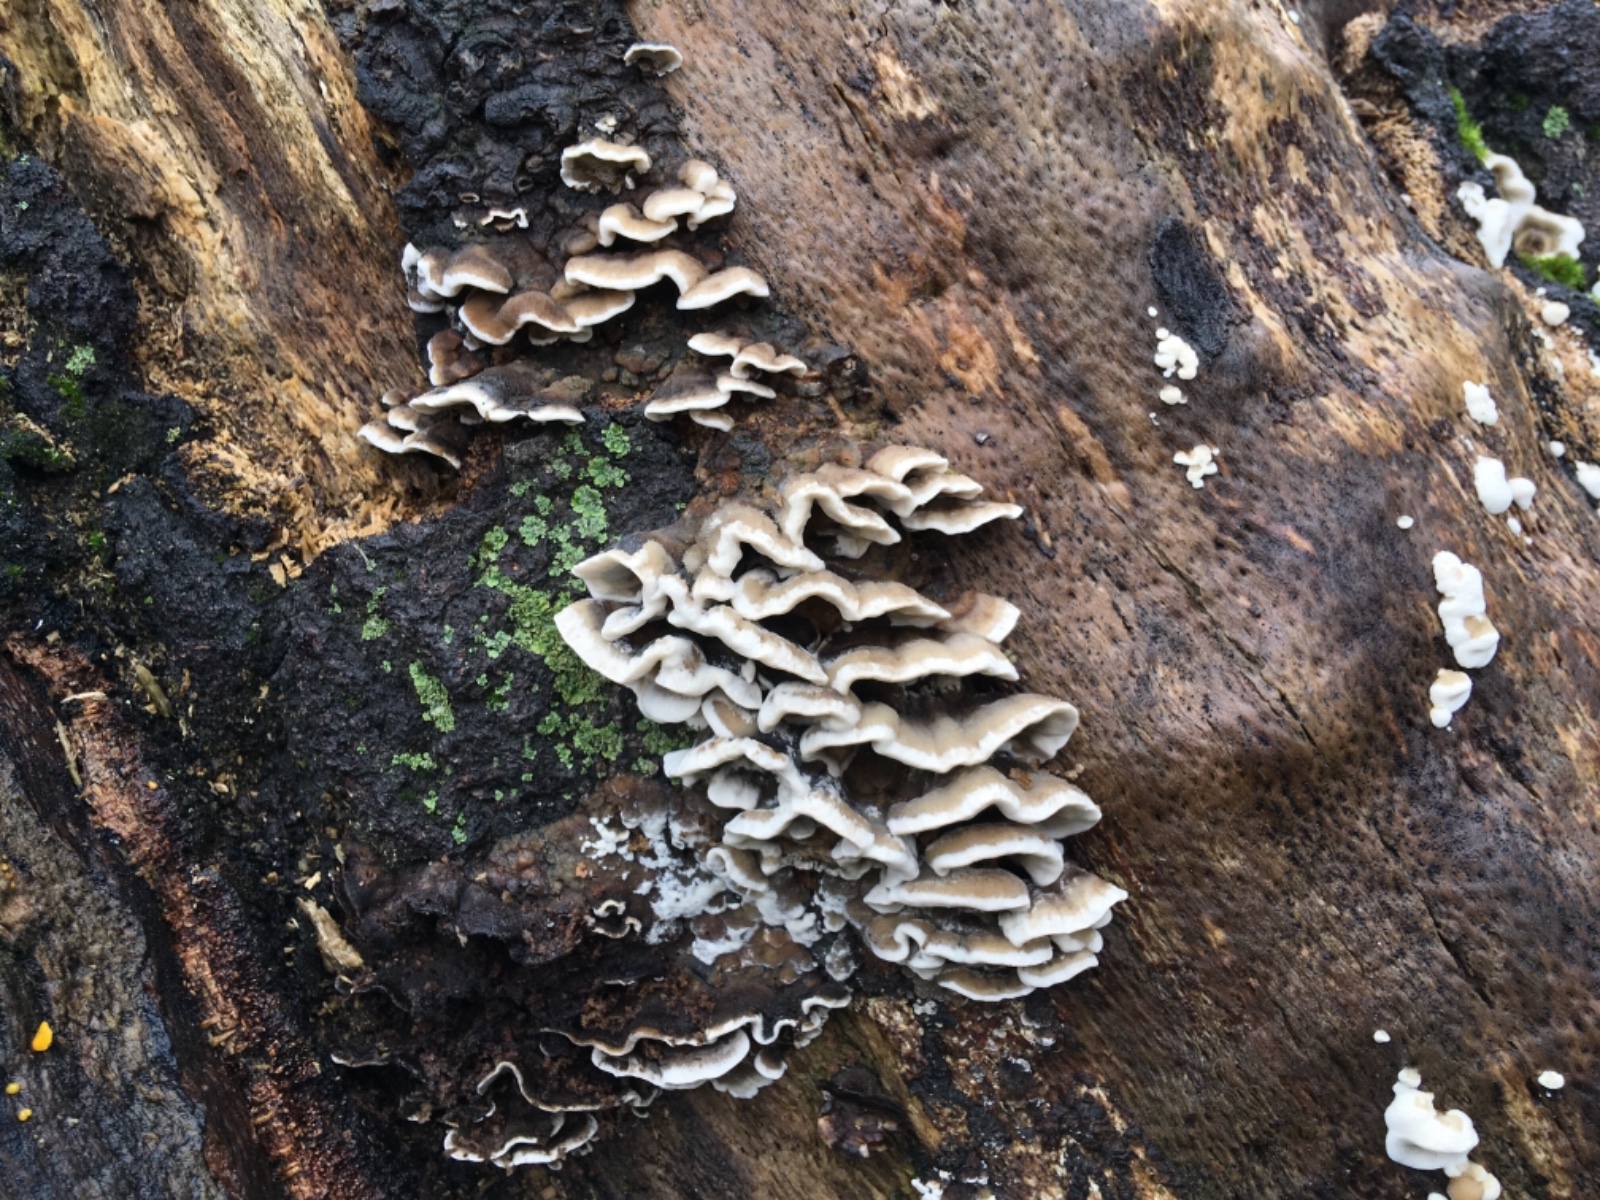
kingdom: Fungi
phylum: Basidiomycota
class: Agaricomycetes
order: Polyporales
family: Phanerochaetaceae
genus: Bjerkandera
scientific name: Bjerkandera adusta
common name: sveden sodporesvamp
